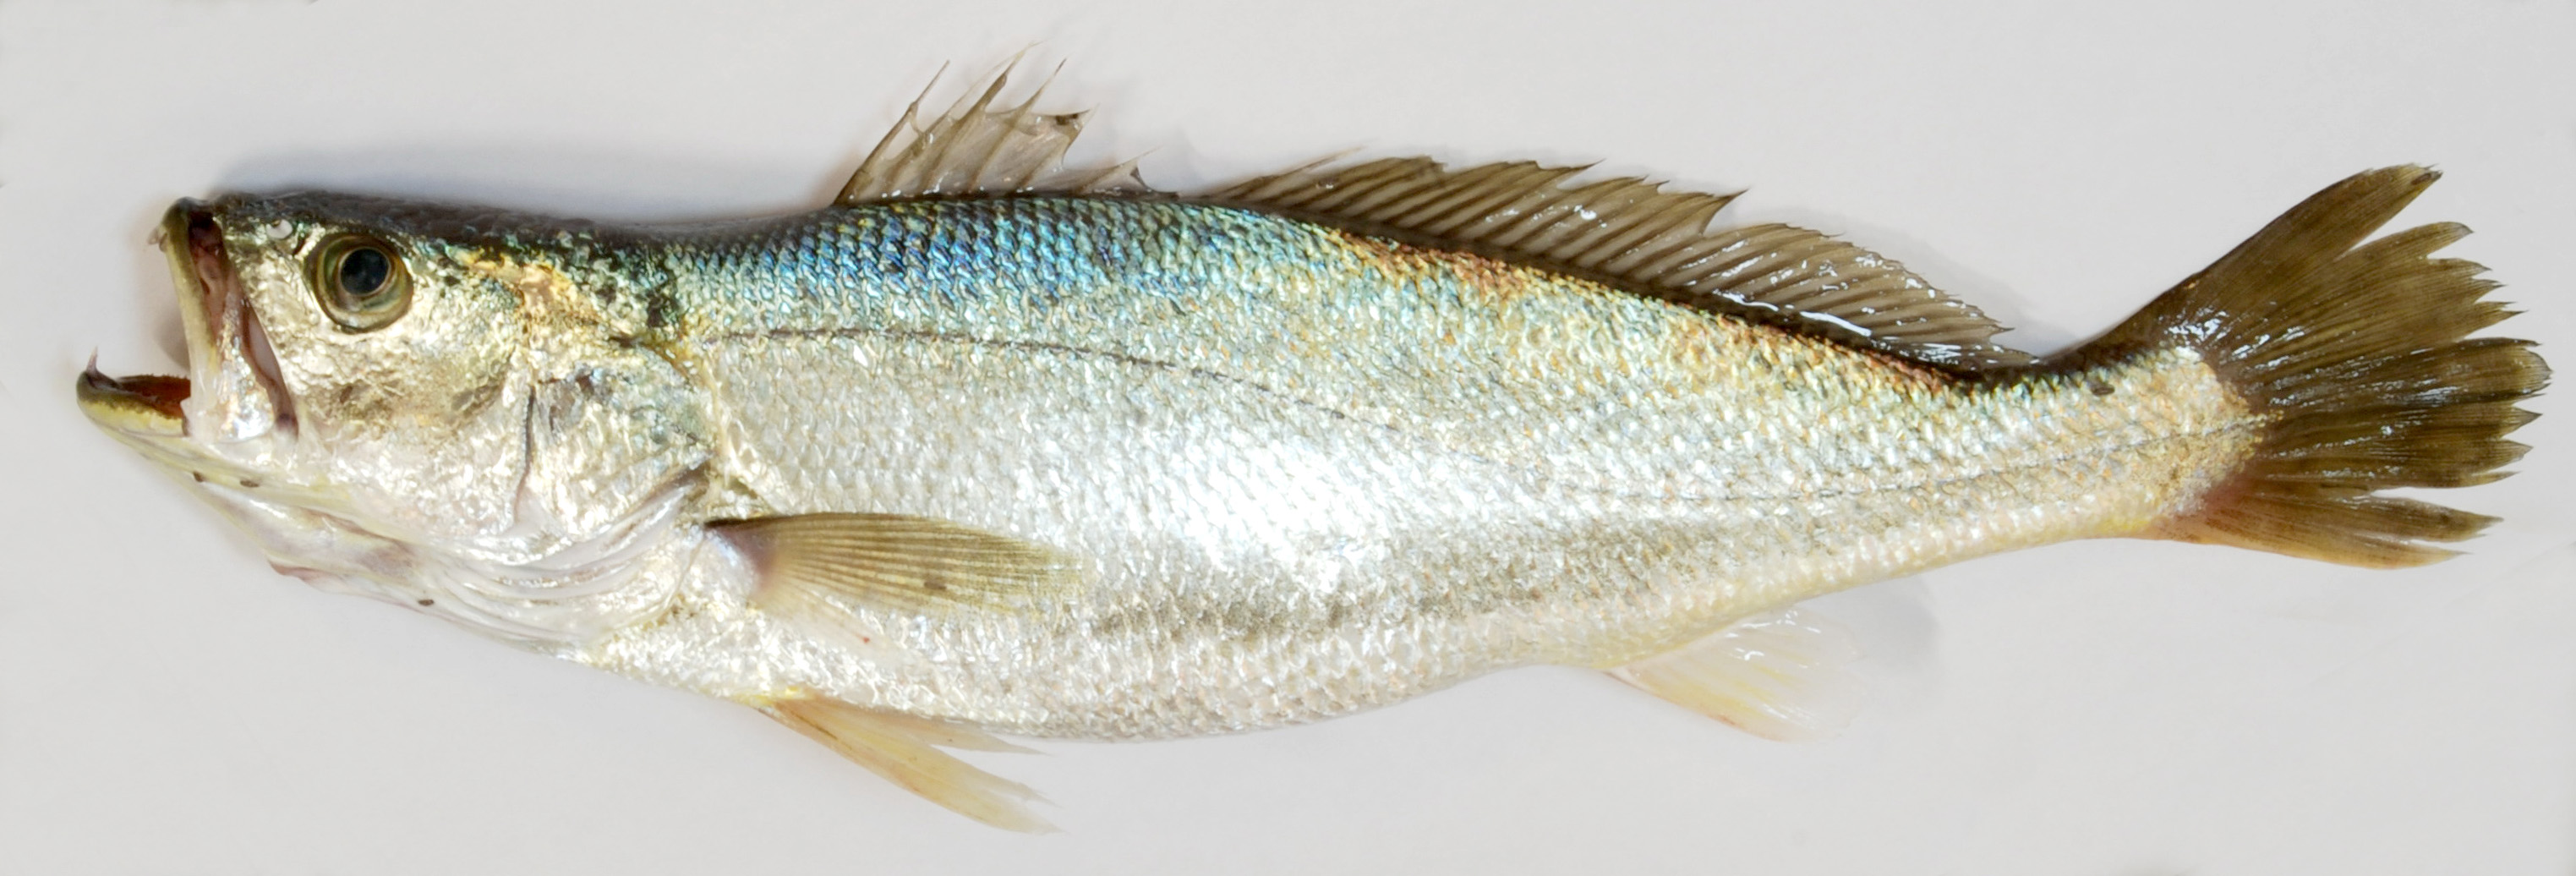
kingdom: Animalia
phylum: Chordata
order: Perciformes
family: Sciaenidae
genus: Otolithes
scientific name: Otolithes ruber
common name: Croaker
